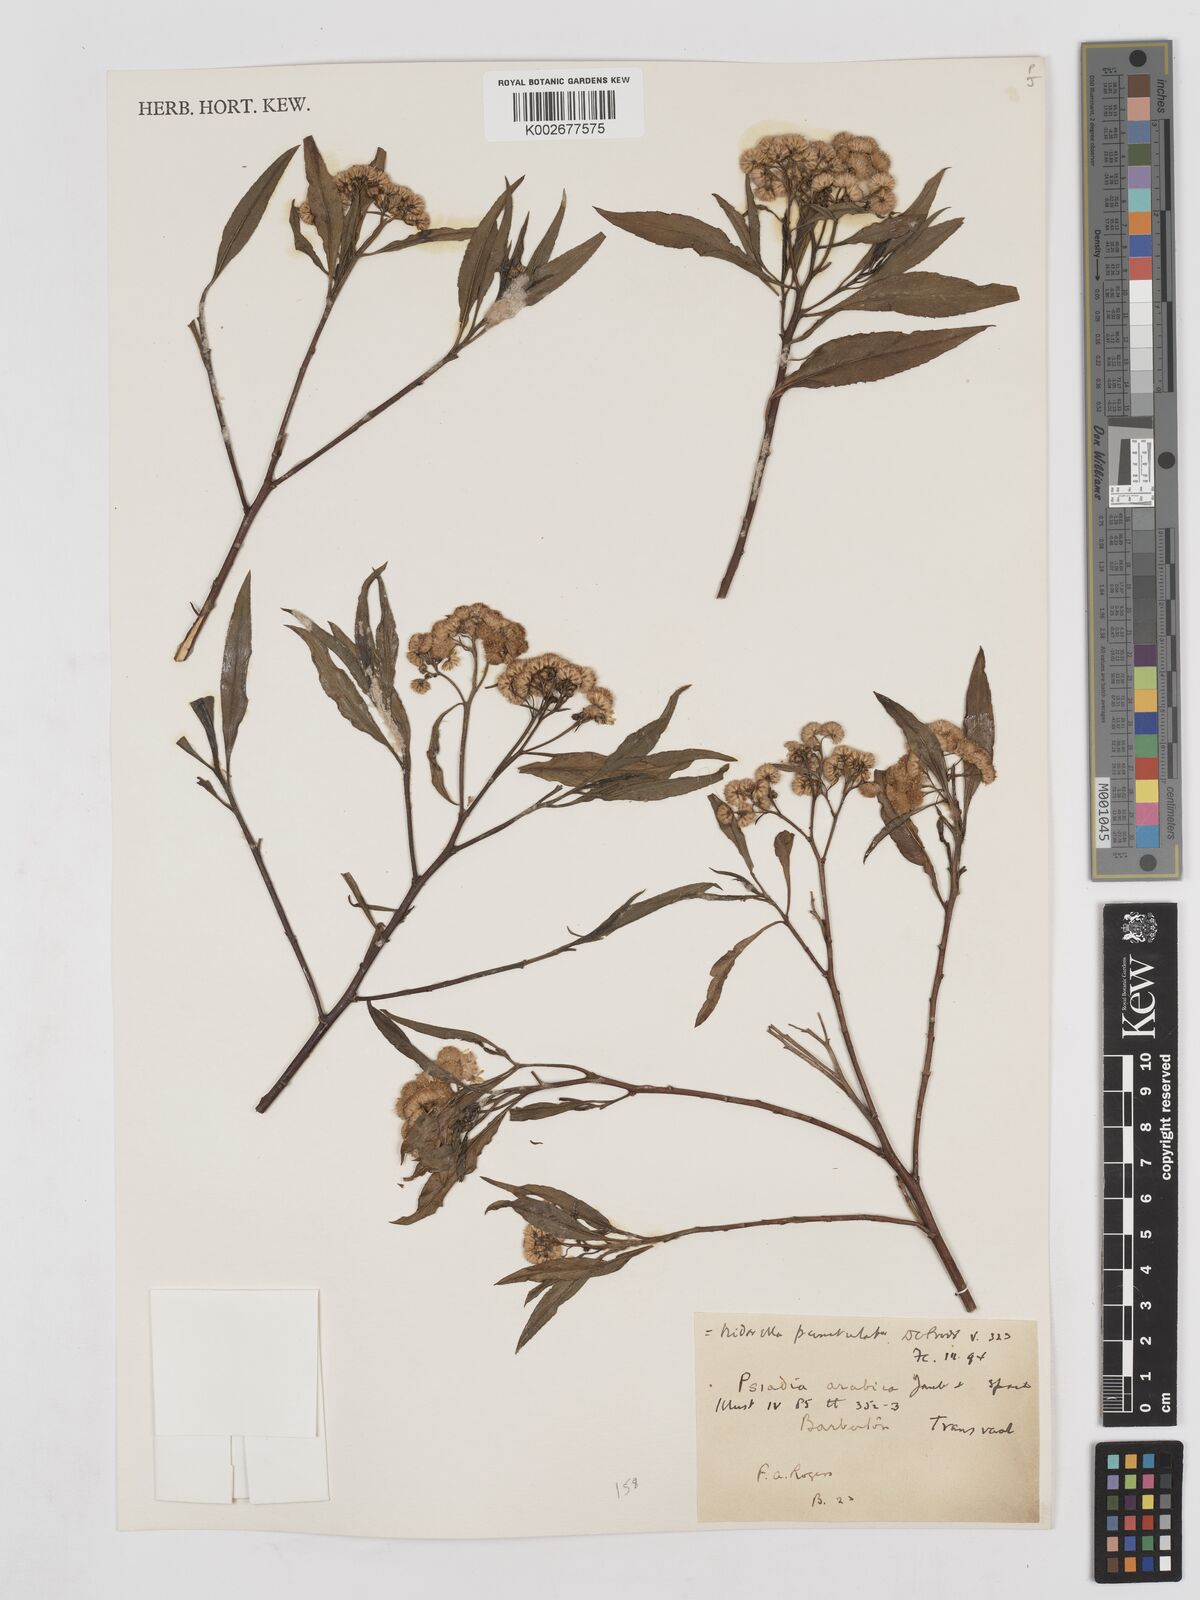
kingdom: Plantae
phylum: Tracheophyta
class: Magnoliopsida
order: Asterales
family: Asteraceae
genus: Psiadia
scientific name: Psiadia punctulata
